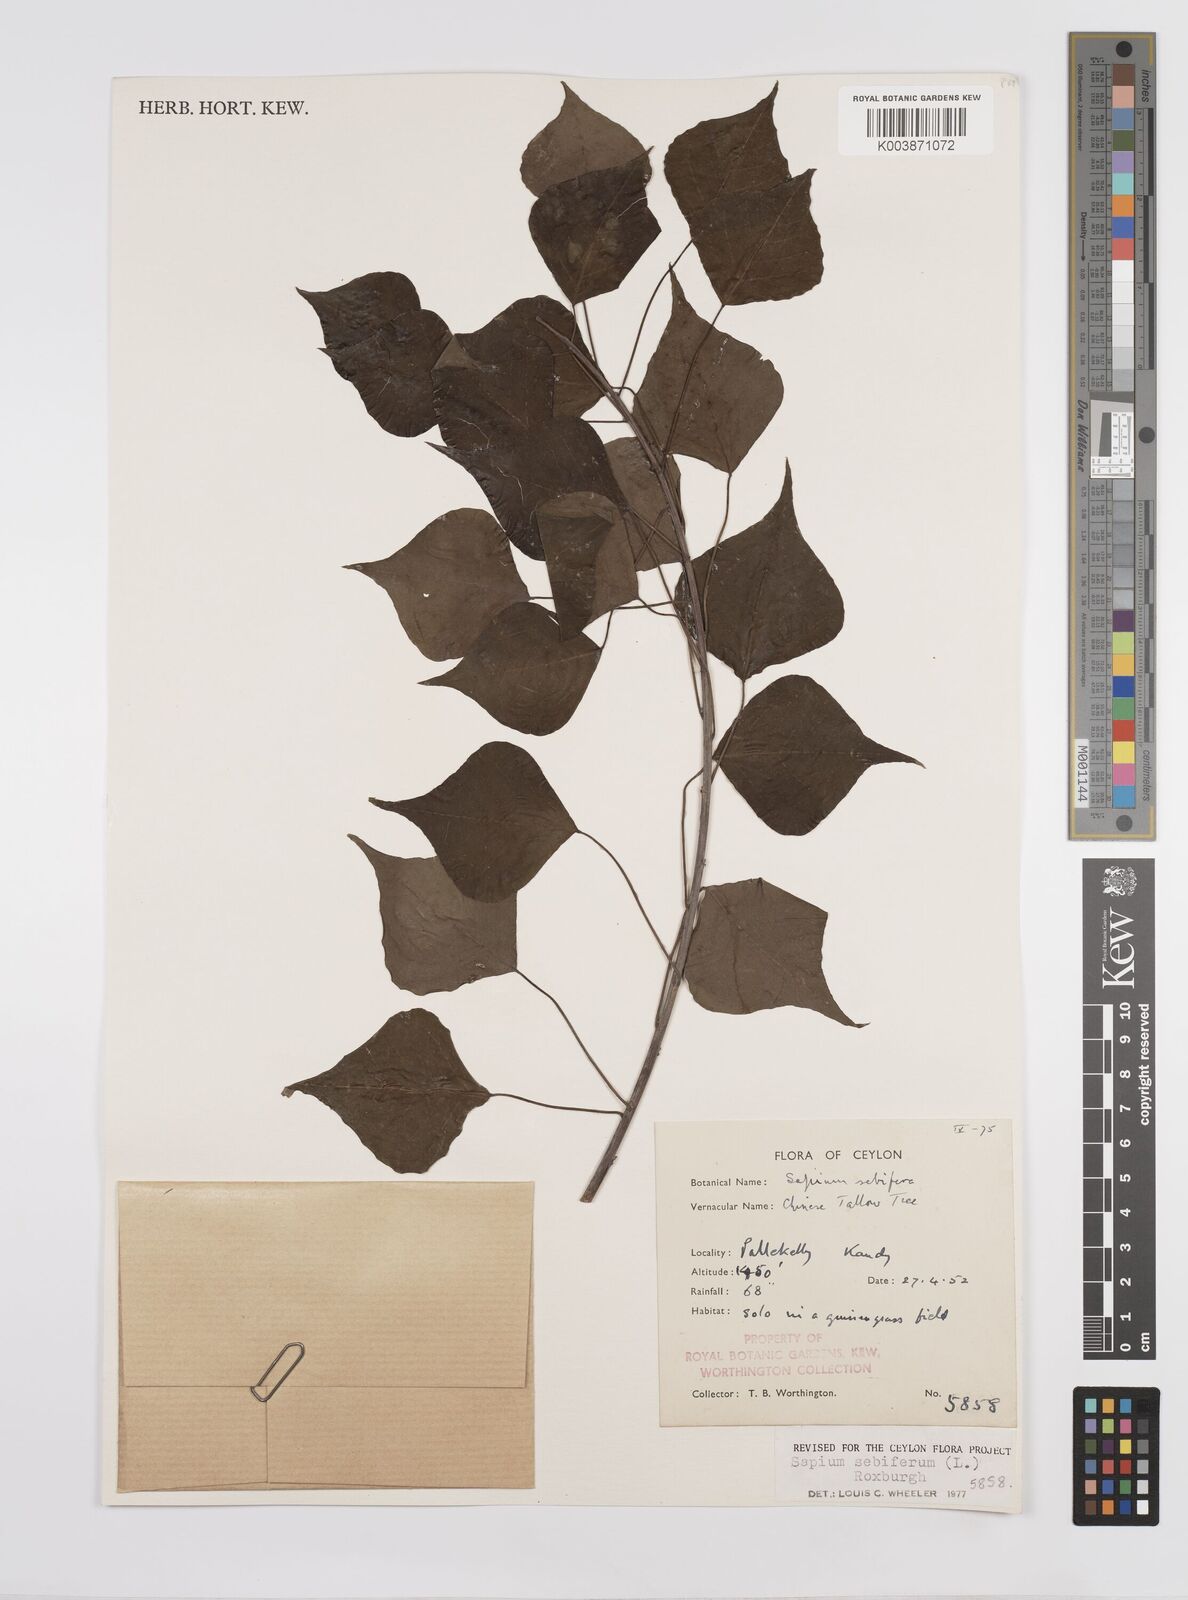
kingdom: Plantae
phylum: Tracheophyta
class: Magnoliopsida
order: Malpighiales
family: Euphorbiaceae
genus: Triadica
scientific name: Triadica sebifera
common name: Chinese tallow
